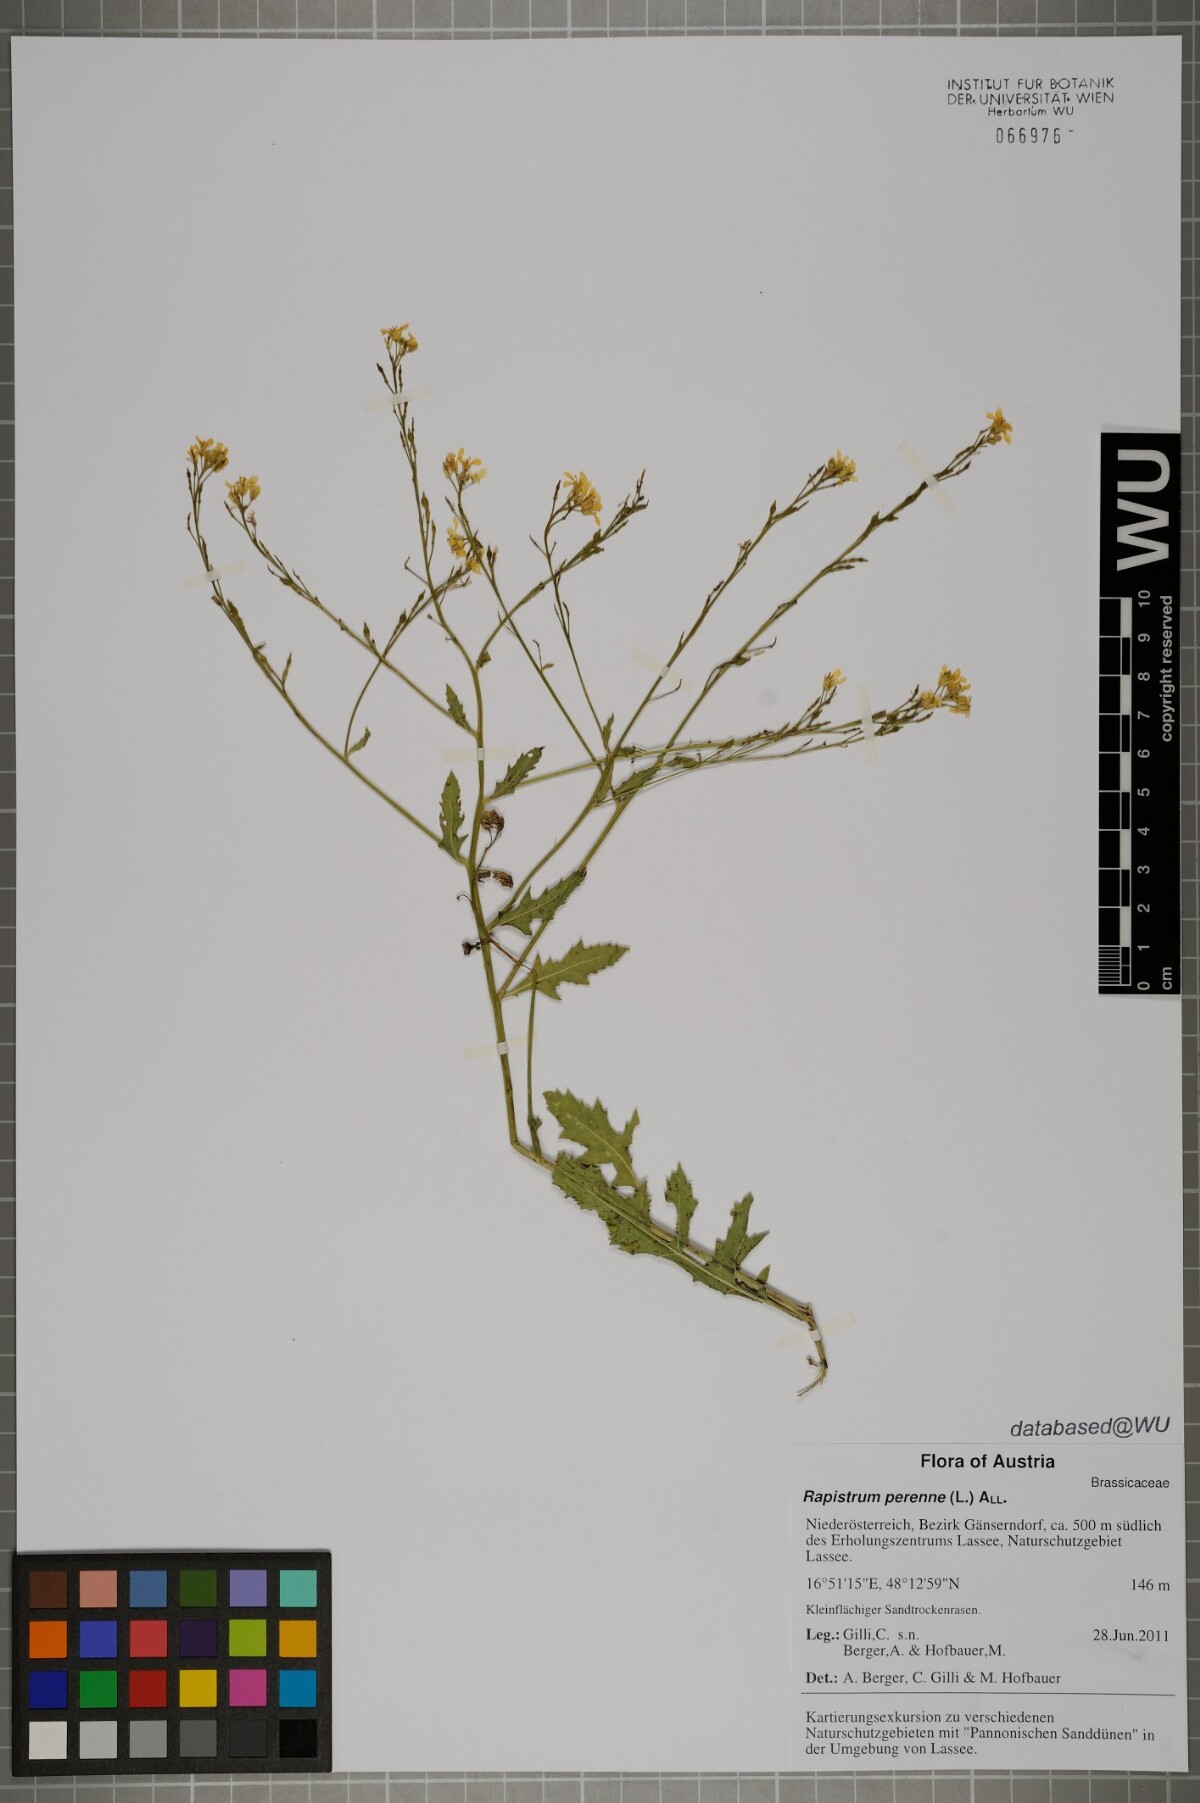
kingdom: Plantae
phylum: Tracheophyta
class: Magnoliopsida
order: Brassicales
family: Brassicaceae
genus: Rapistrum
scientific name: Rapistrum perenne
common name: Steppe cabbage
